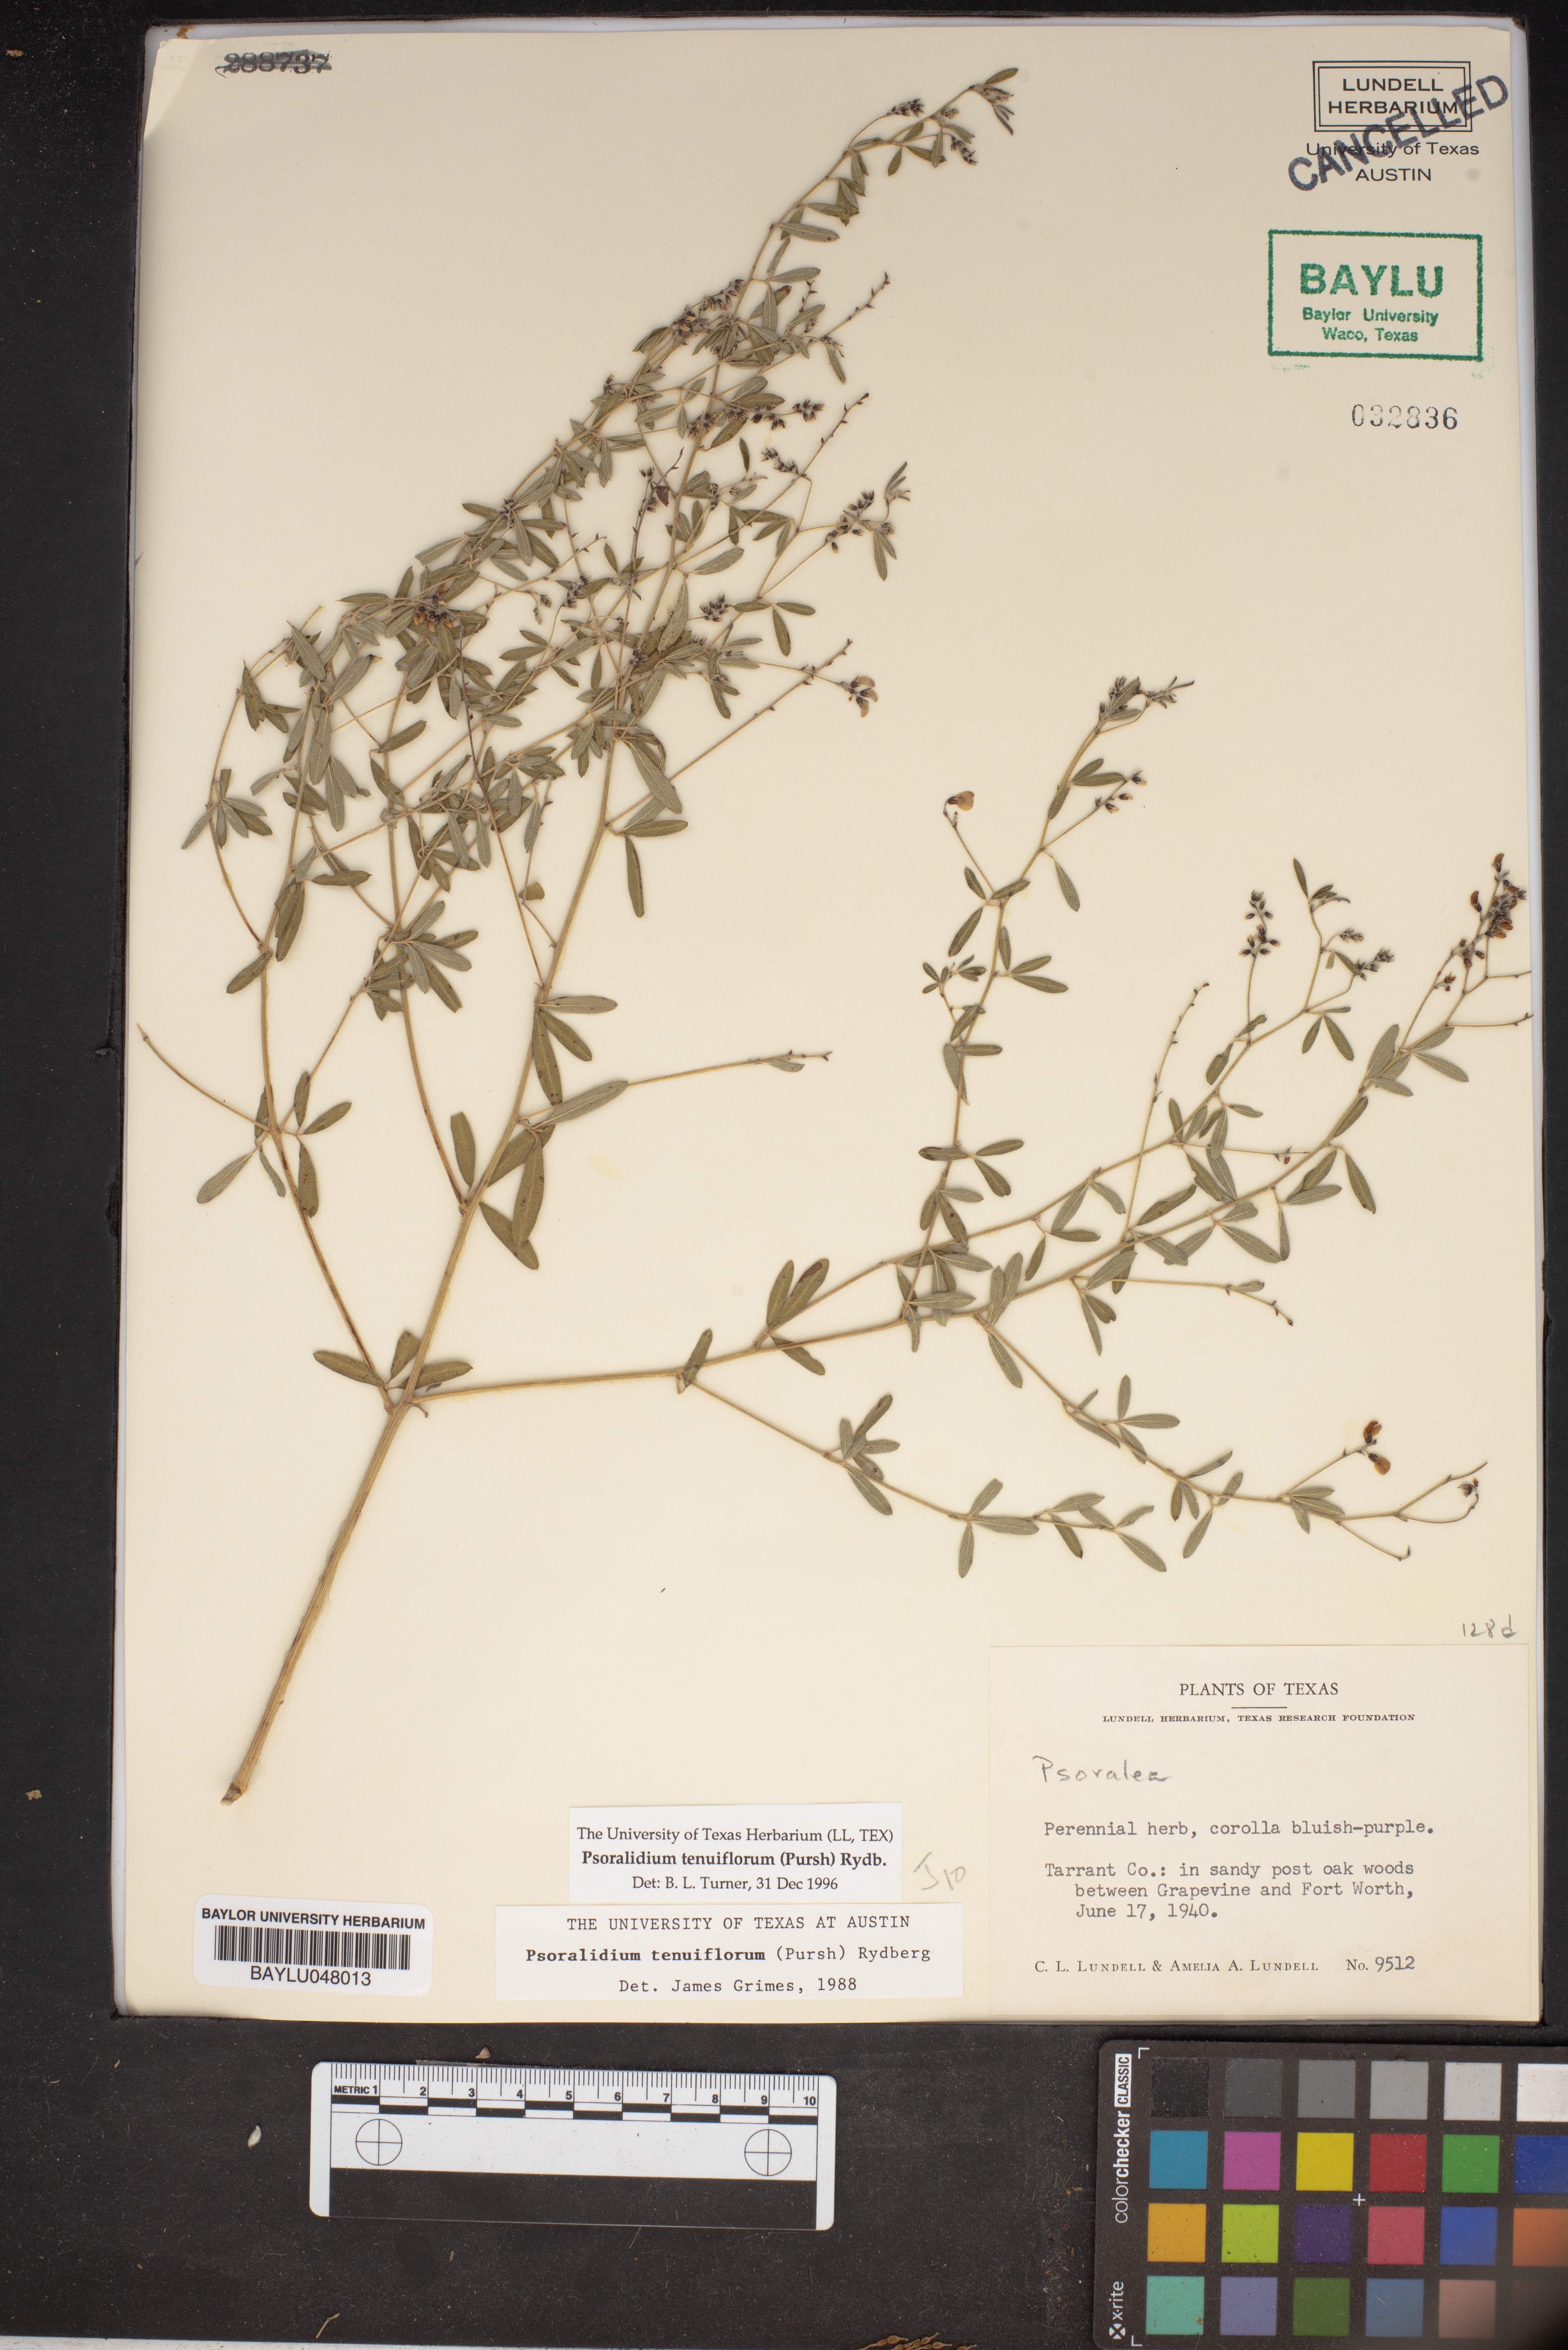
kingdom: Plantae
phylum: Tracheophyta
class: Magnoliopsida
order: Fabales
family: Fabaceae
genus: Pediomelum
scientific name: Pediomelum tenuiflorum
